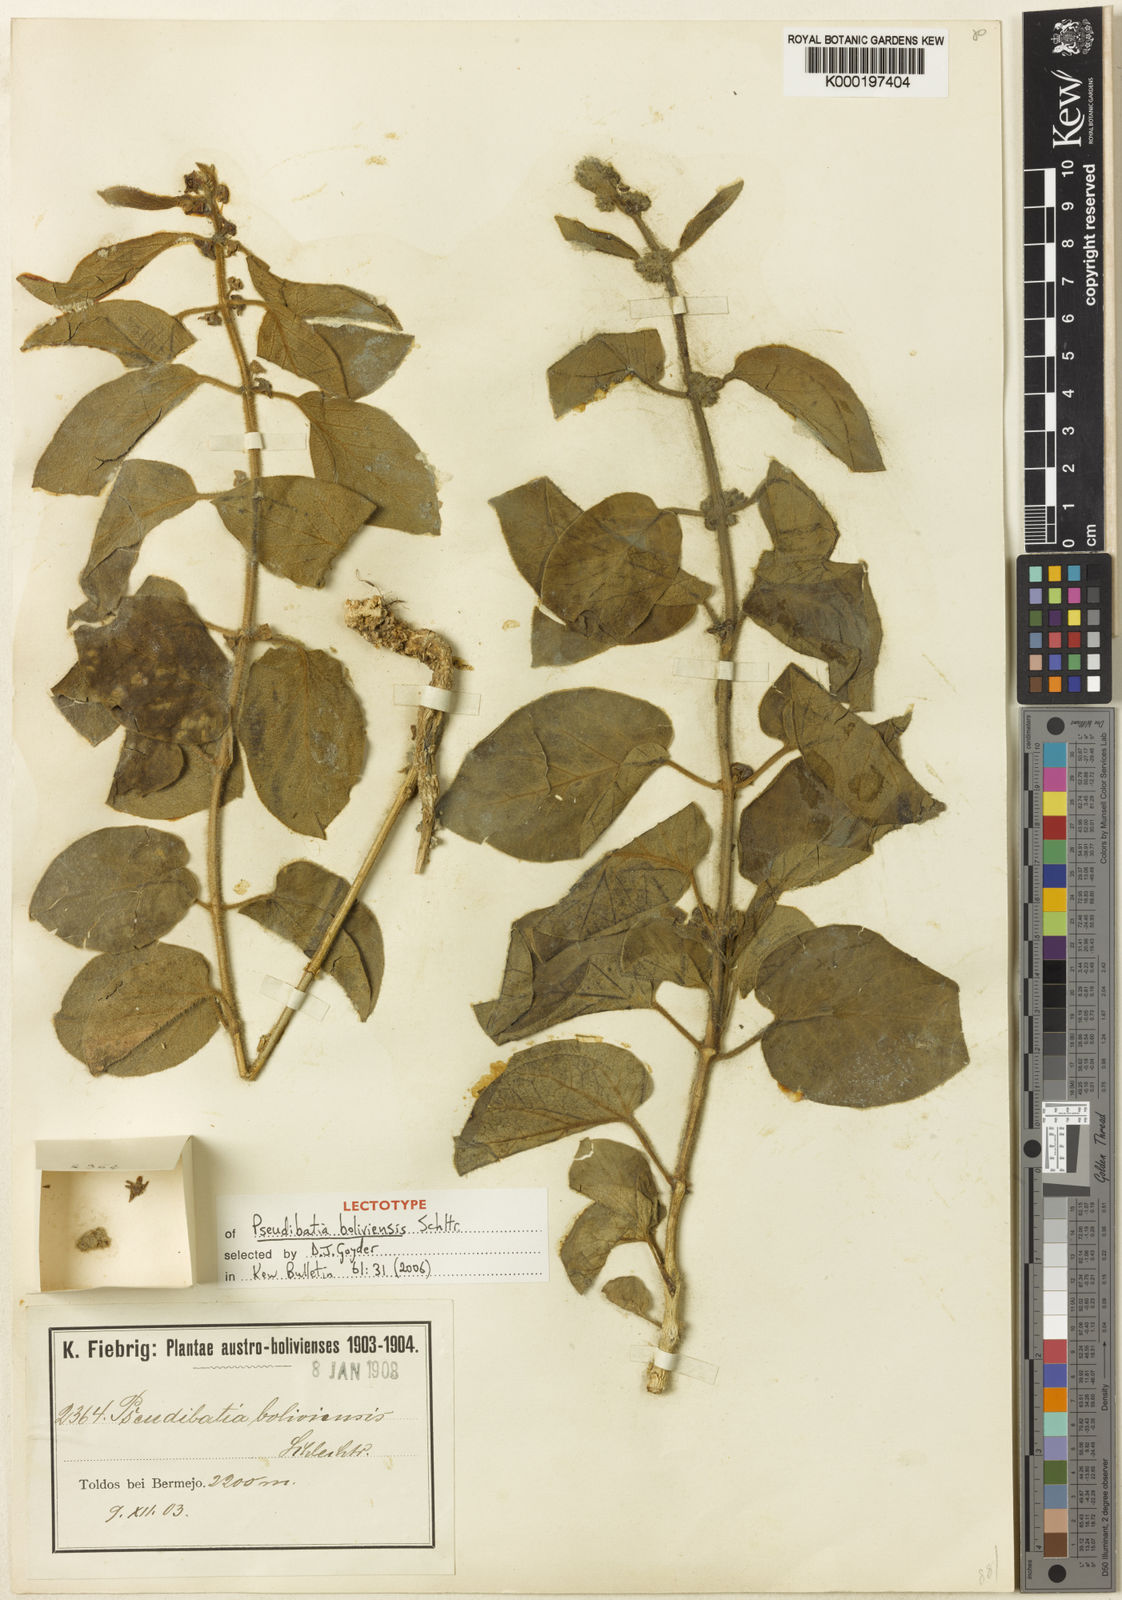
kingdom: Plantae
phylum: Tracheophyta
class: Magnoliopsida
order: Gentianales
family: Apocynaceae
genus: Ibatia
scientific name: Ibatia boliviensis
